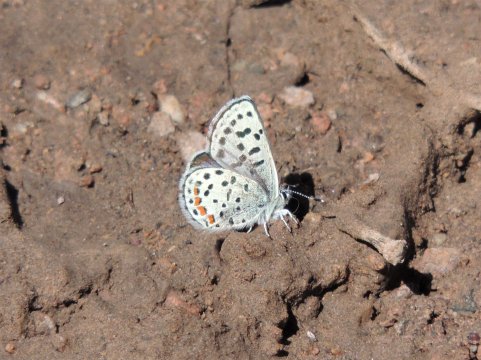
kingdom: Animalia
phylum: Arthropoda
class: Insecta
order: Lepidoptera
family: Lycaenidae
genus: Euphilotes
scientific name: Euphilotes
